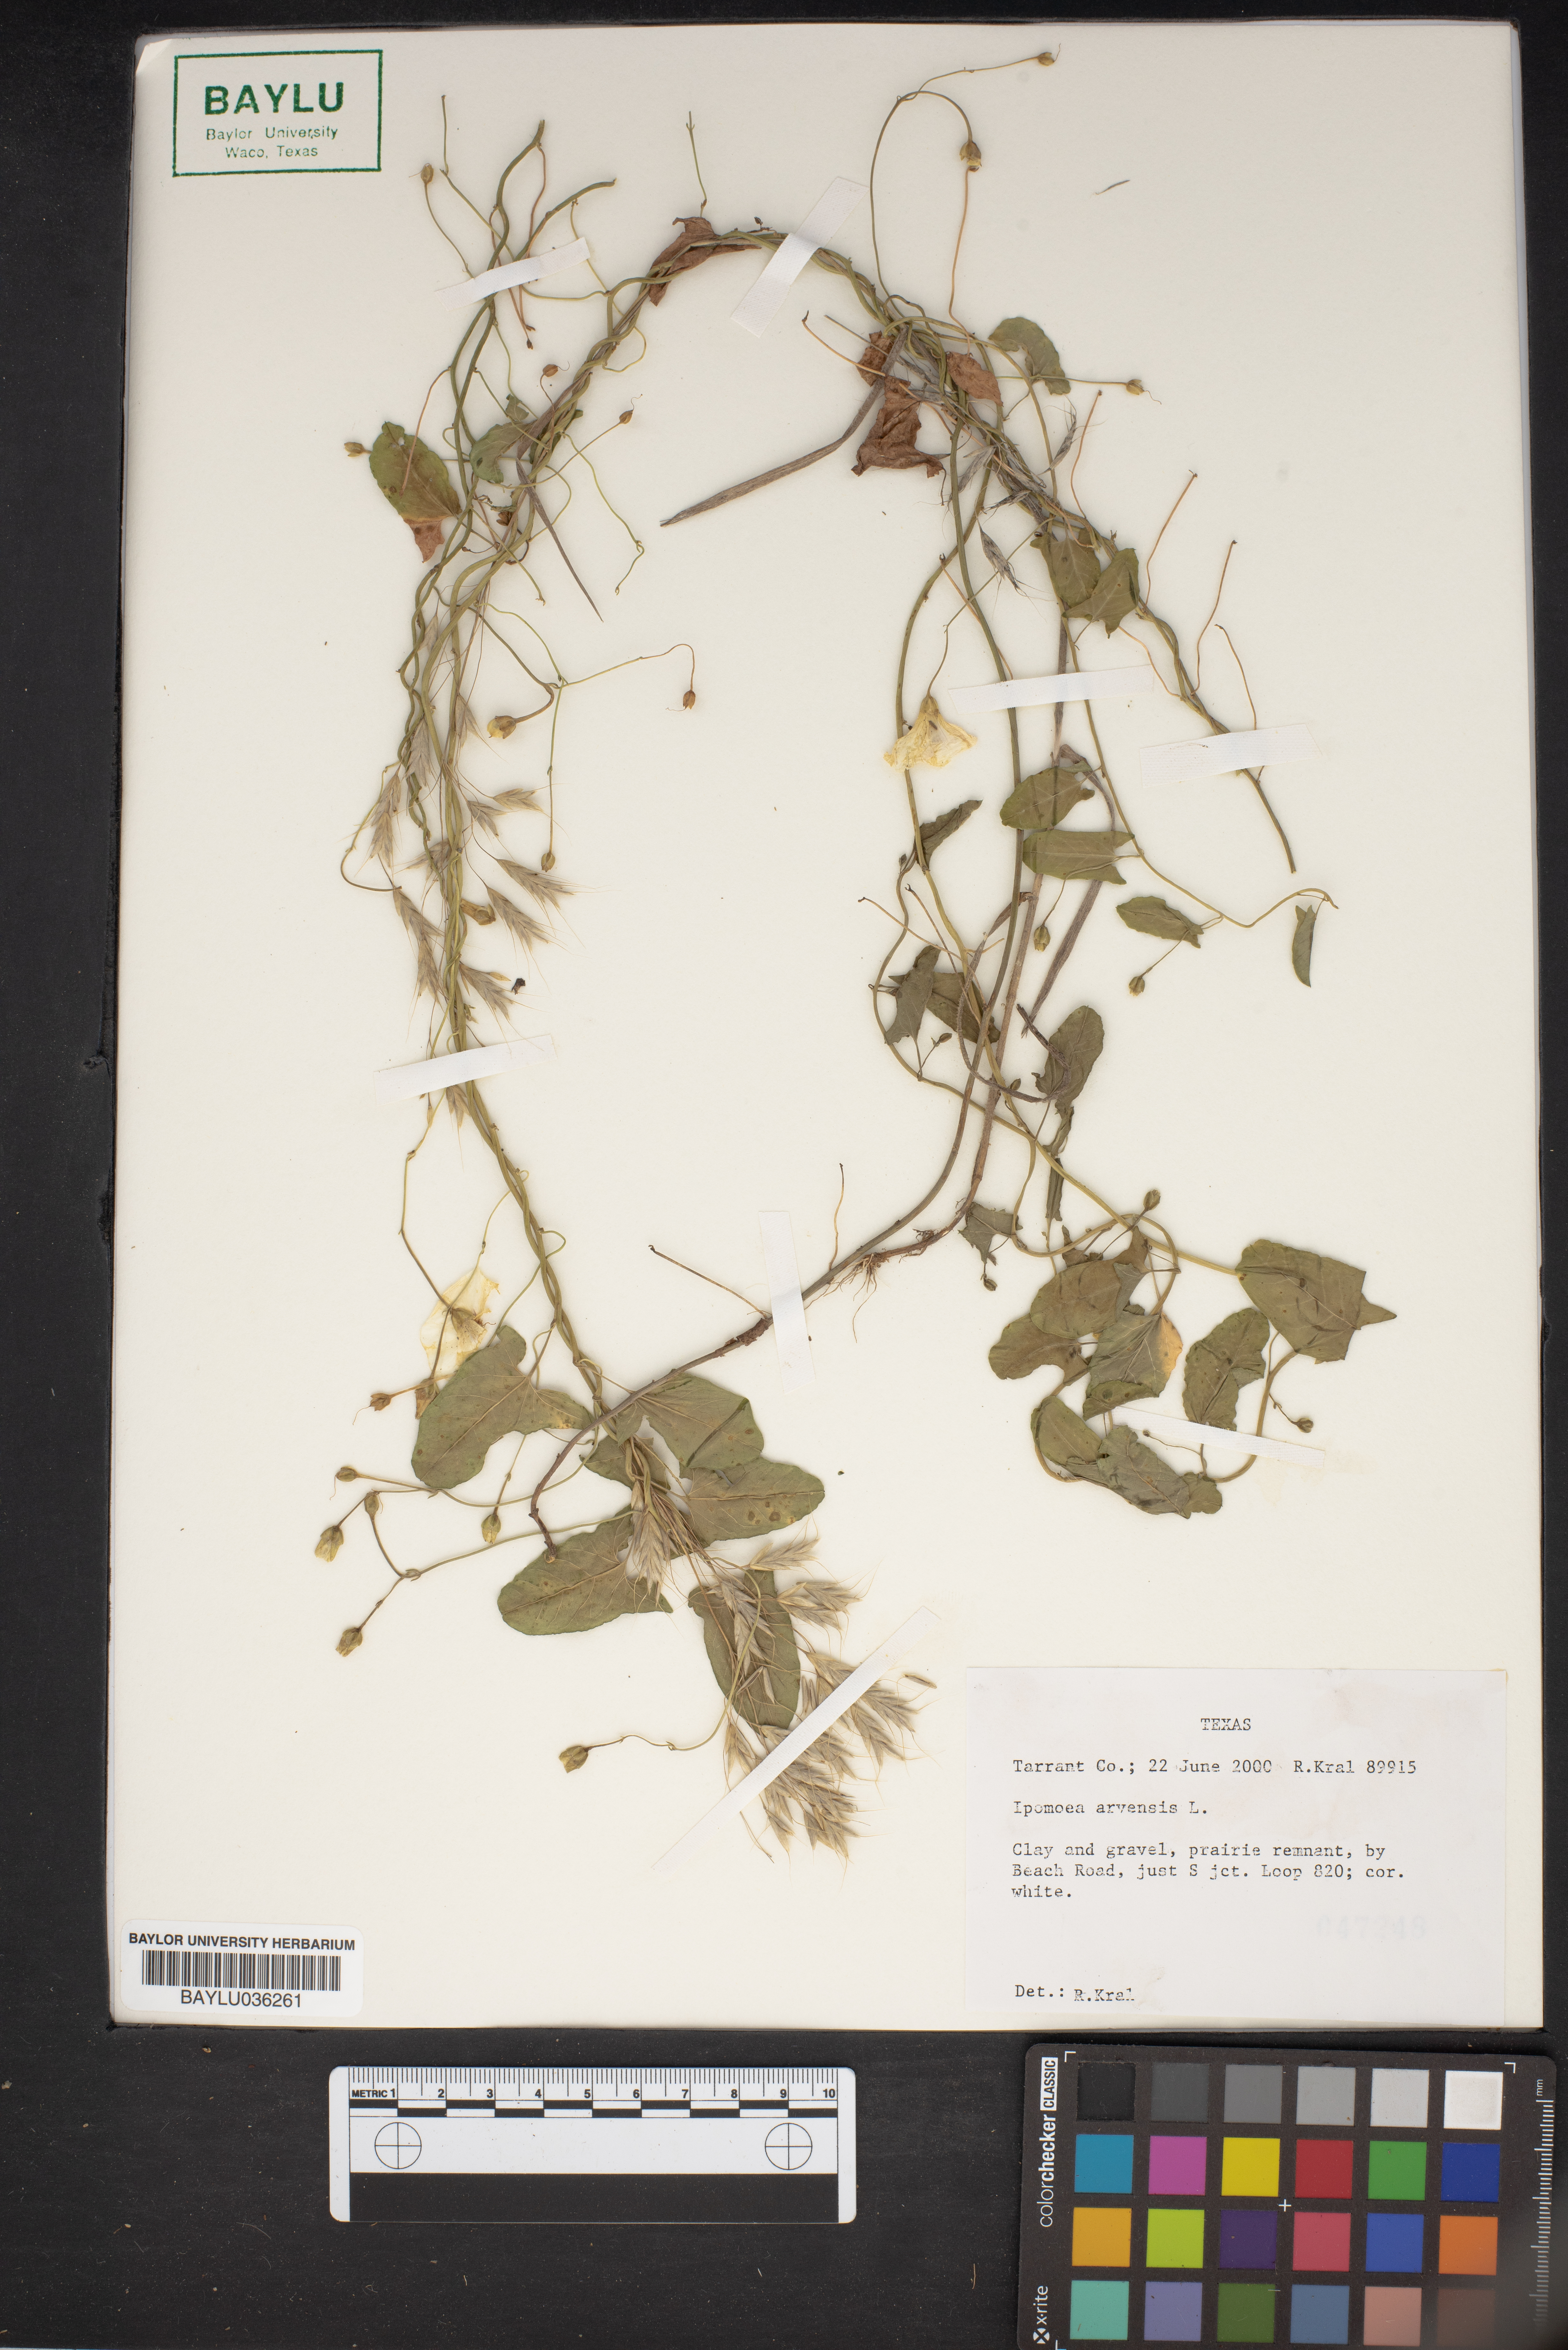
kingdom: Plantae
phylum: Tracheophyta
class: Magnoliopsida
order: Solanales
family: Convolvulaceae
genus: Ipomoea
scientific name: Ipomoea
